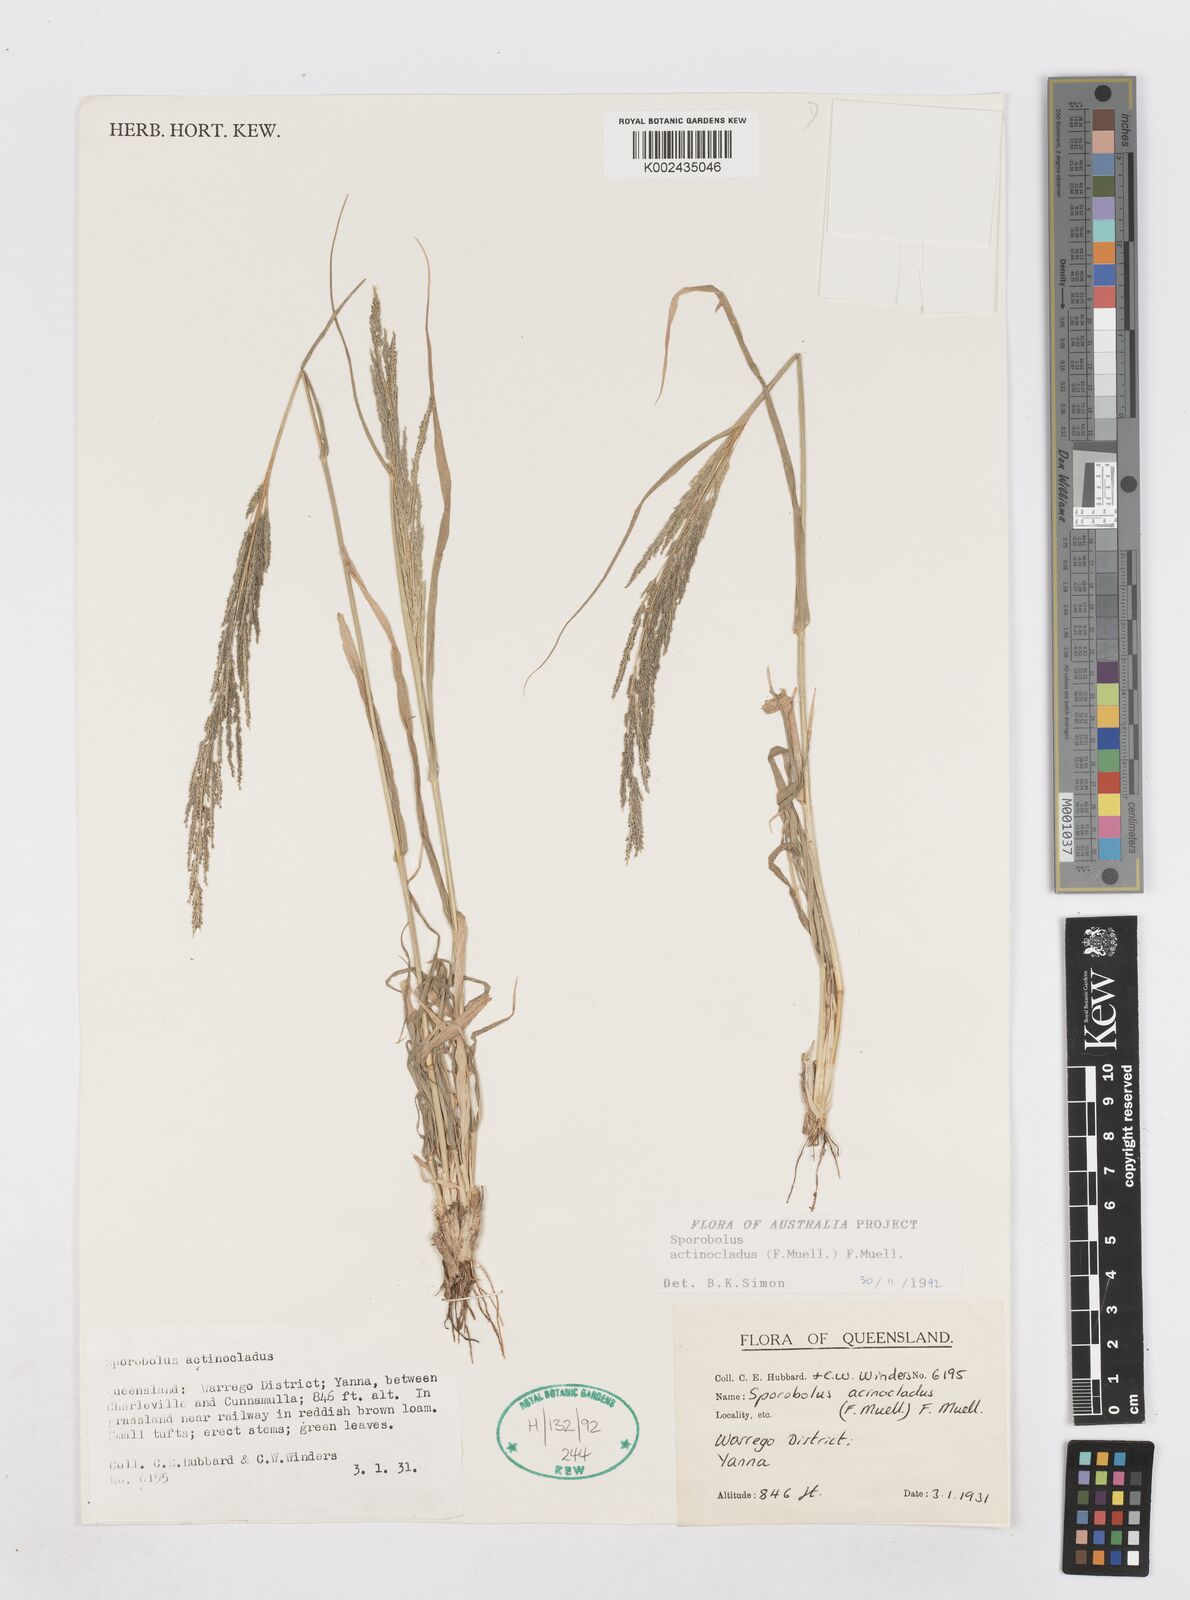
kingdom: Plantae
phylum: Tracheophyta
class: Liliopsida
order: Poales
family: Poaceae
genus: Sporobolus
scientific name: Sporobolus actinocladus
